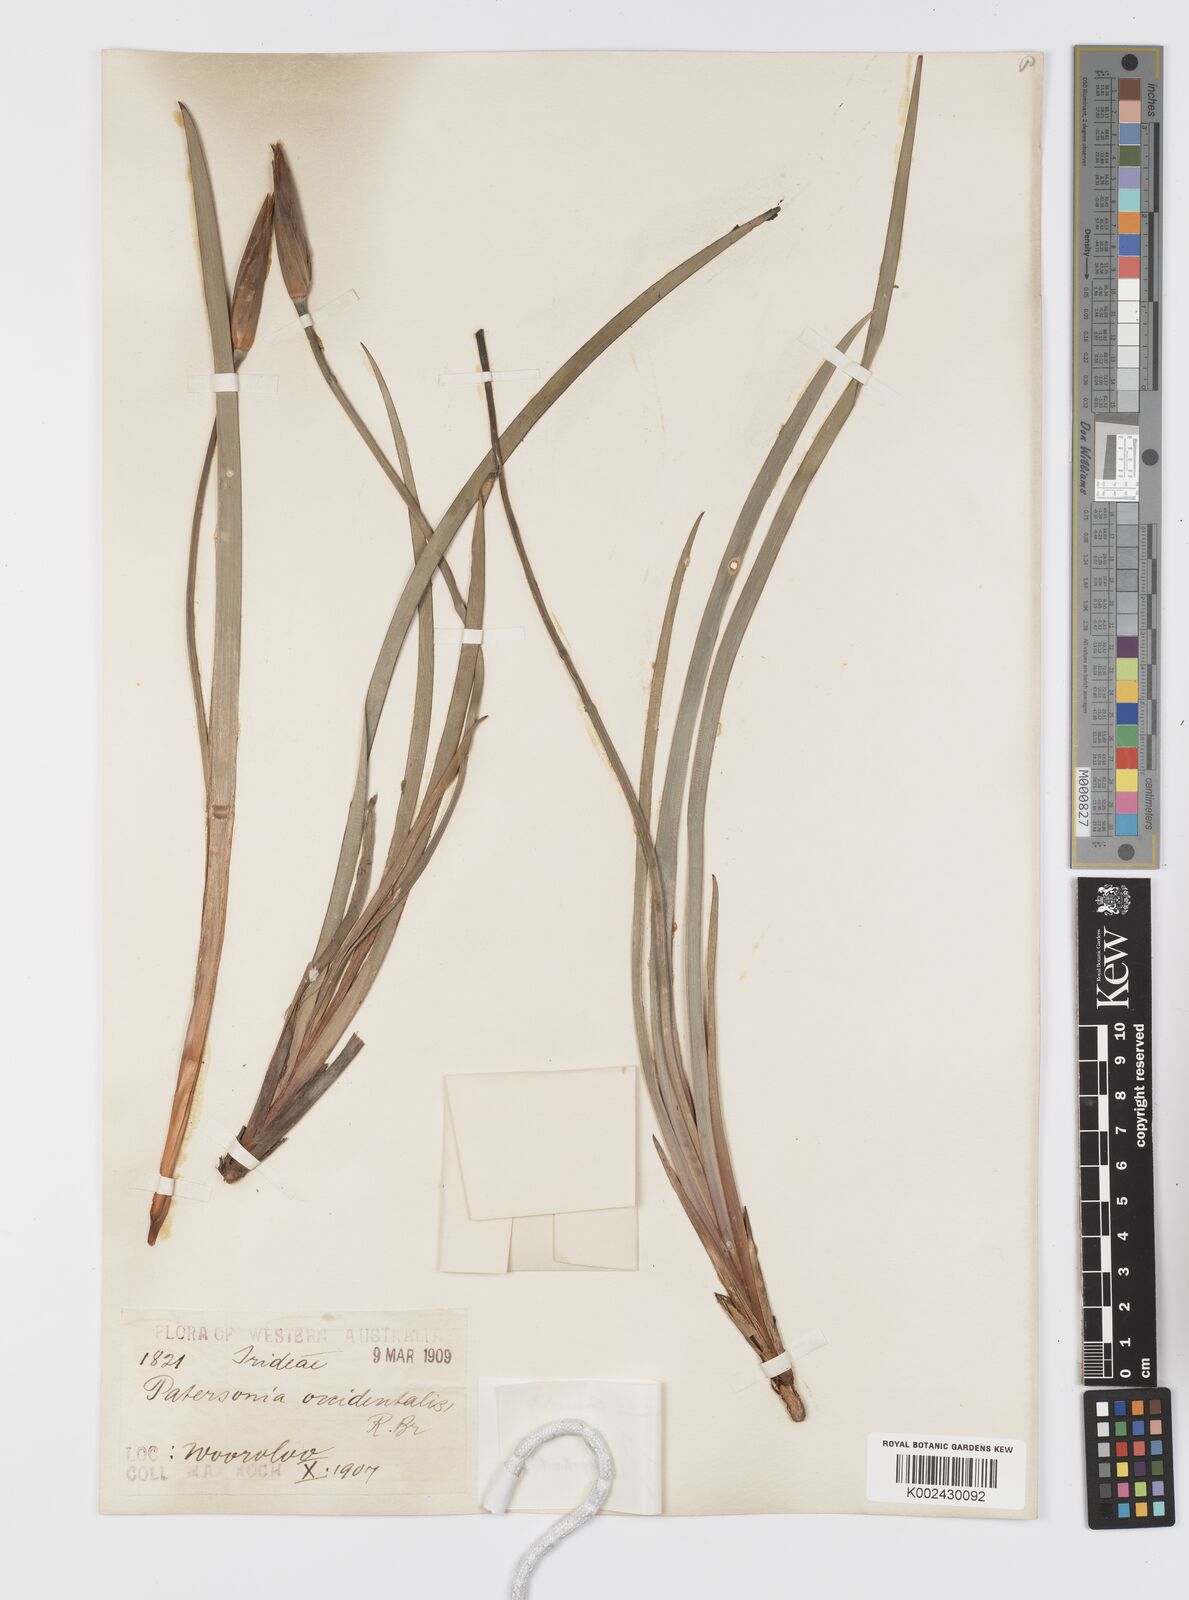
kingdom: Plantae
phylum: Tracheophyta
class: Liliopsida
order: Asparagales
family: Iridaceae
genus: Patersonia
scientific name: Patersonia occidentalis
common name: Long purple-flag
